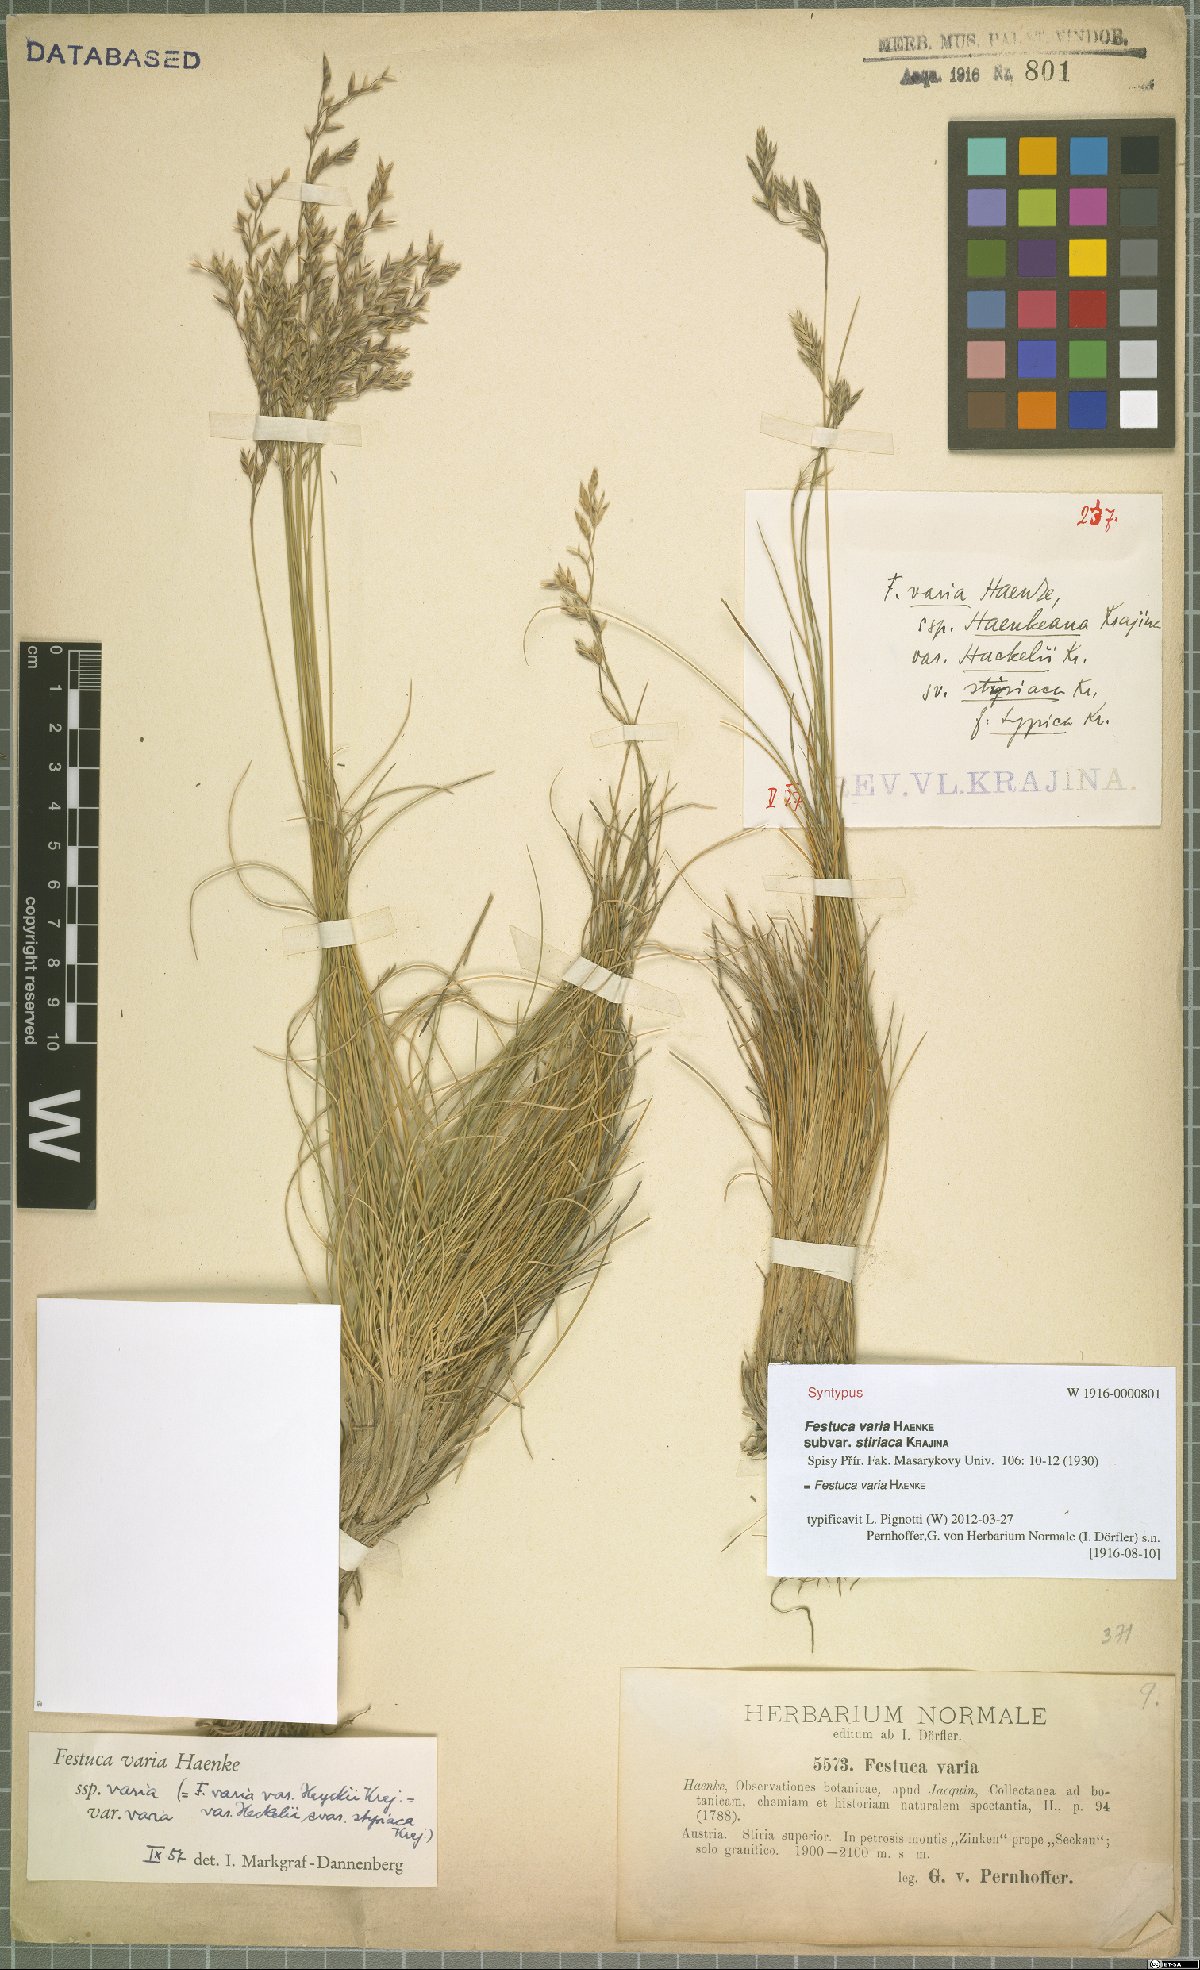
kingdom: Plantae
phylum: Tracheophyta
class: Liliopsida
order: Poales
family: Poaceae
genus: Festuca
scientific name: Festuca varia
